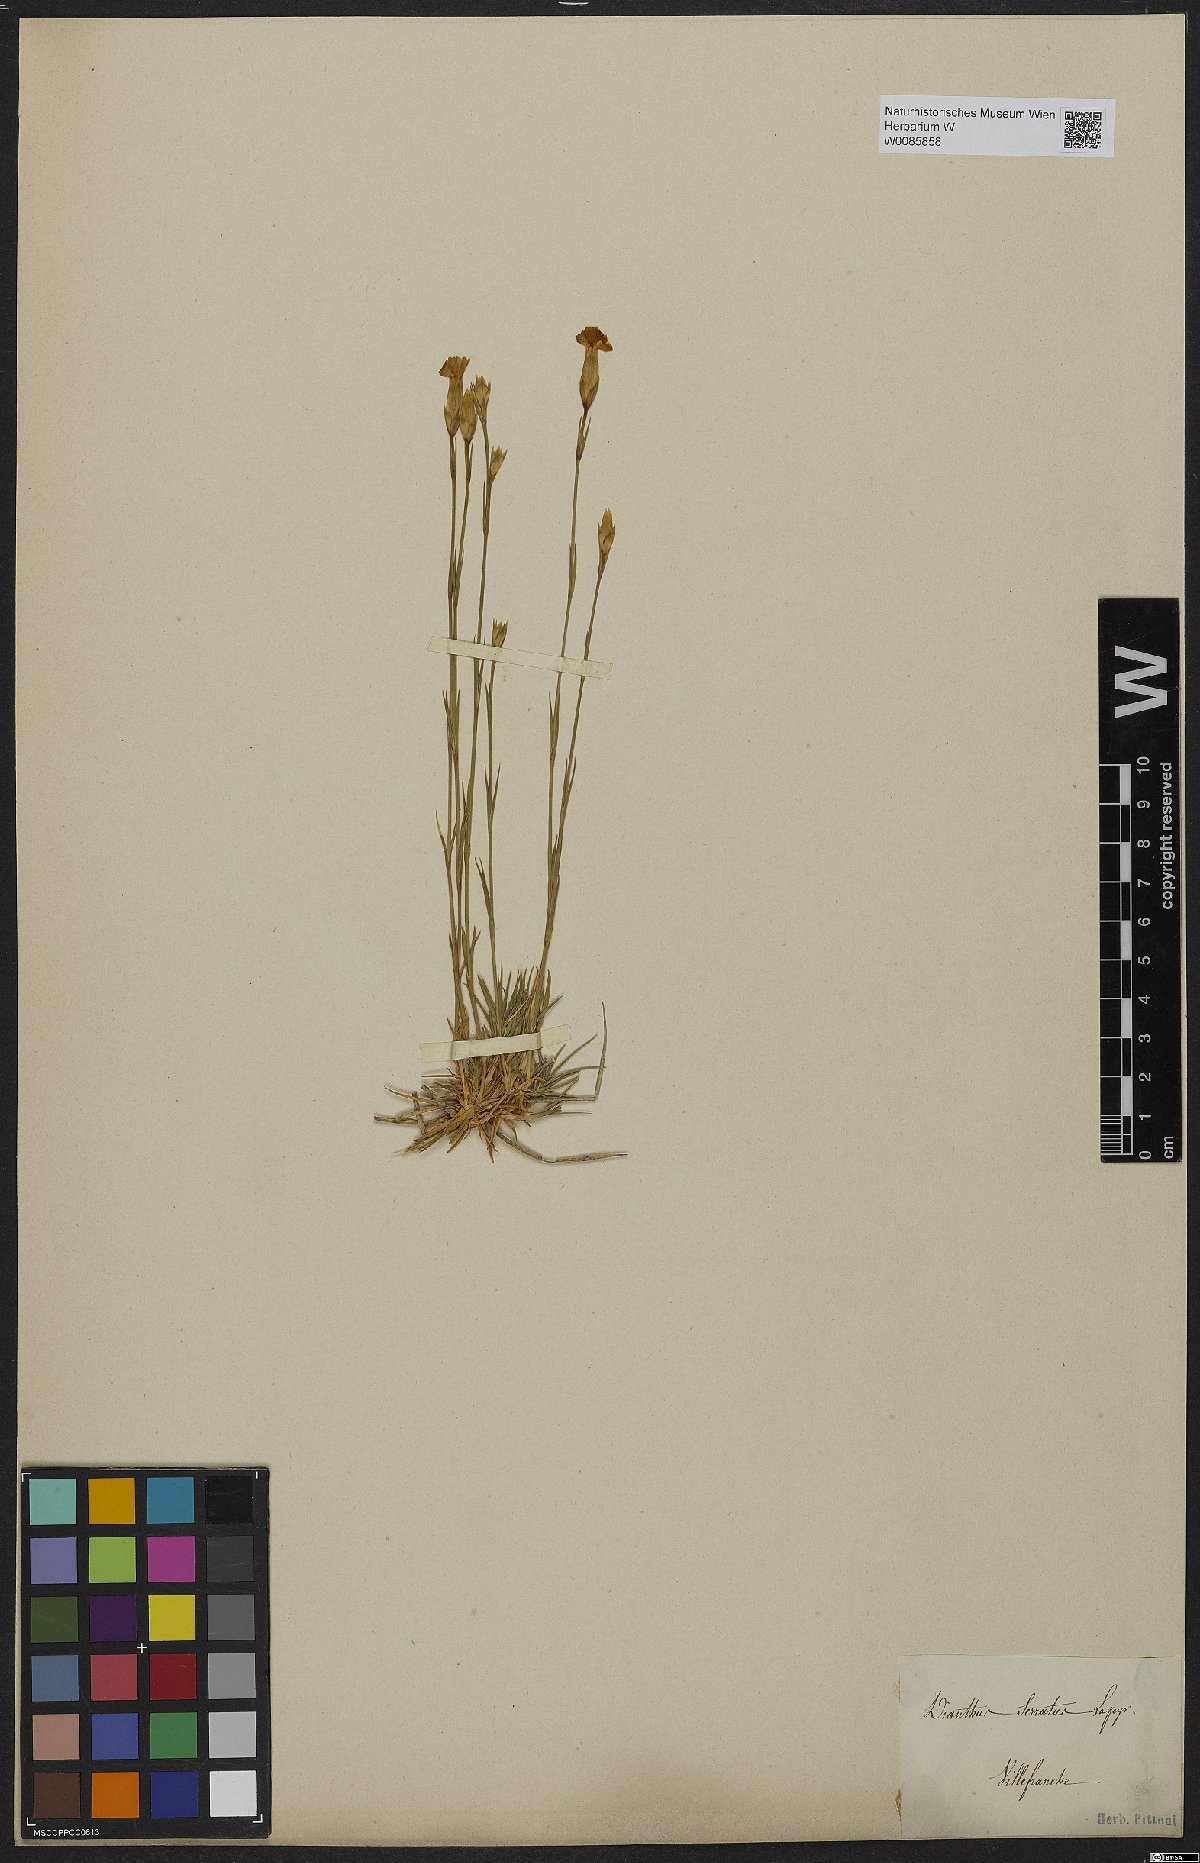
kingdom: Plantae
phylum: Tracheophyta
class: Magnoliopsida
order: Caryophyllales
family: Caryophyllaceae
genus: Dianthus
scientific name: Dianthus pungens
